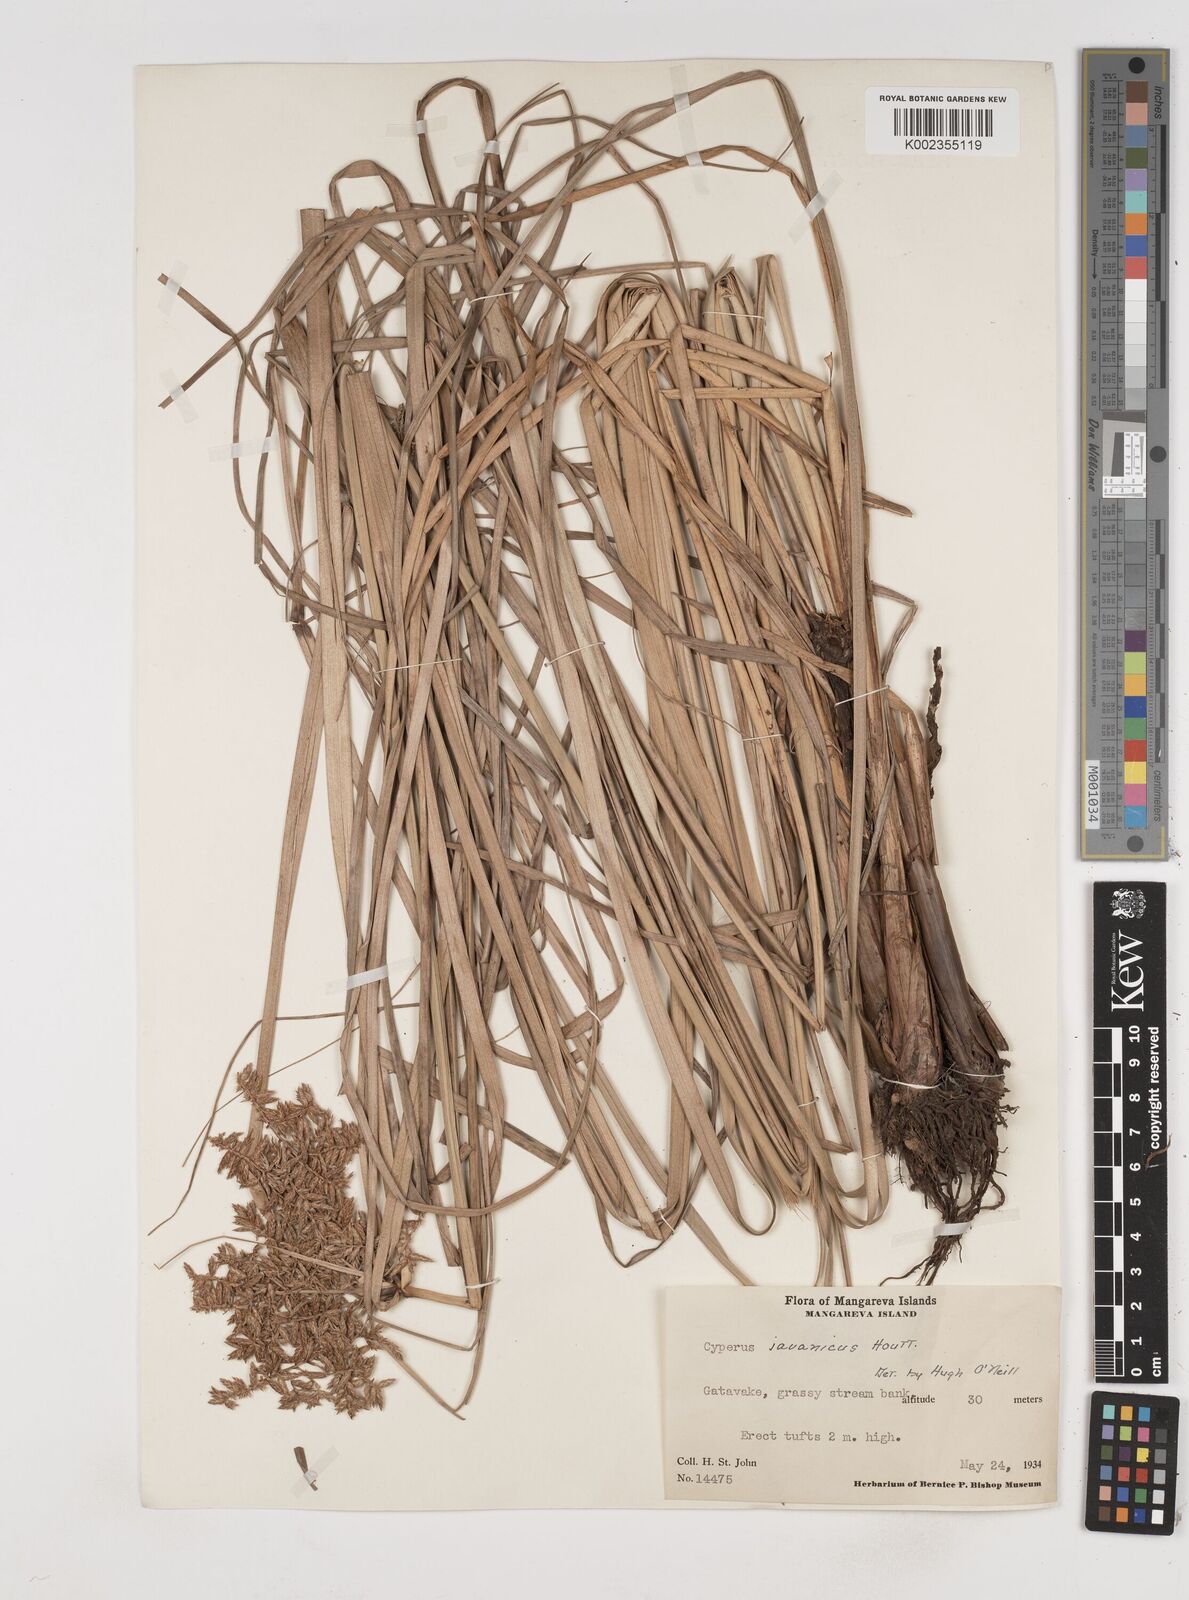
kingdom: Plantae
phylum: Tracheophyta
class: Liliopsida
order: Poales
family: Cyperaceae
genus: Cyperus
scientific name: Cyperus javanicus
